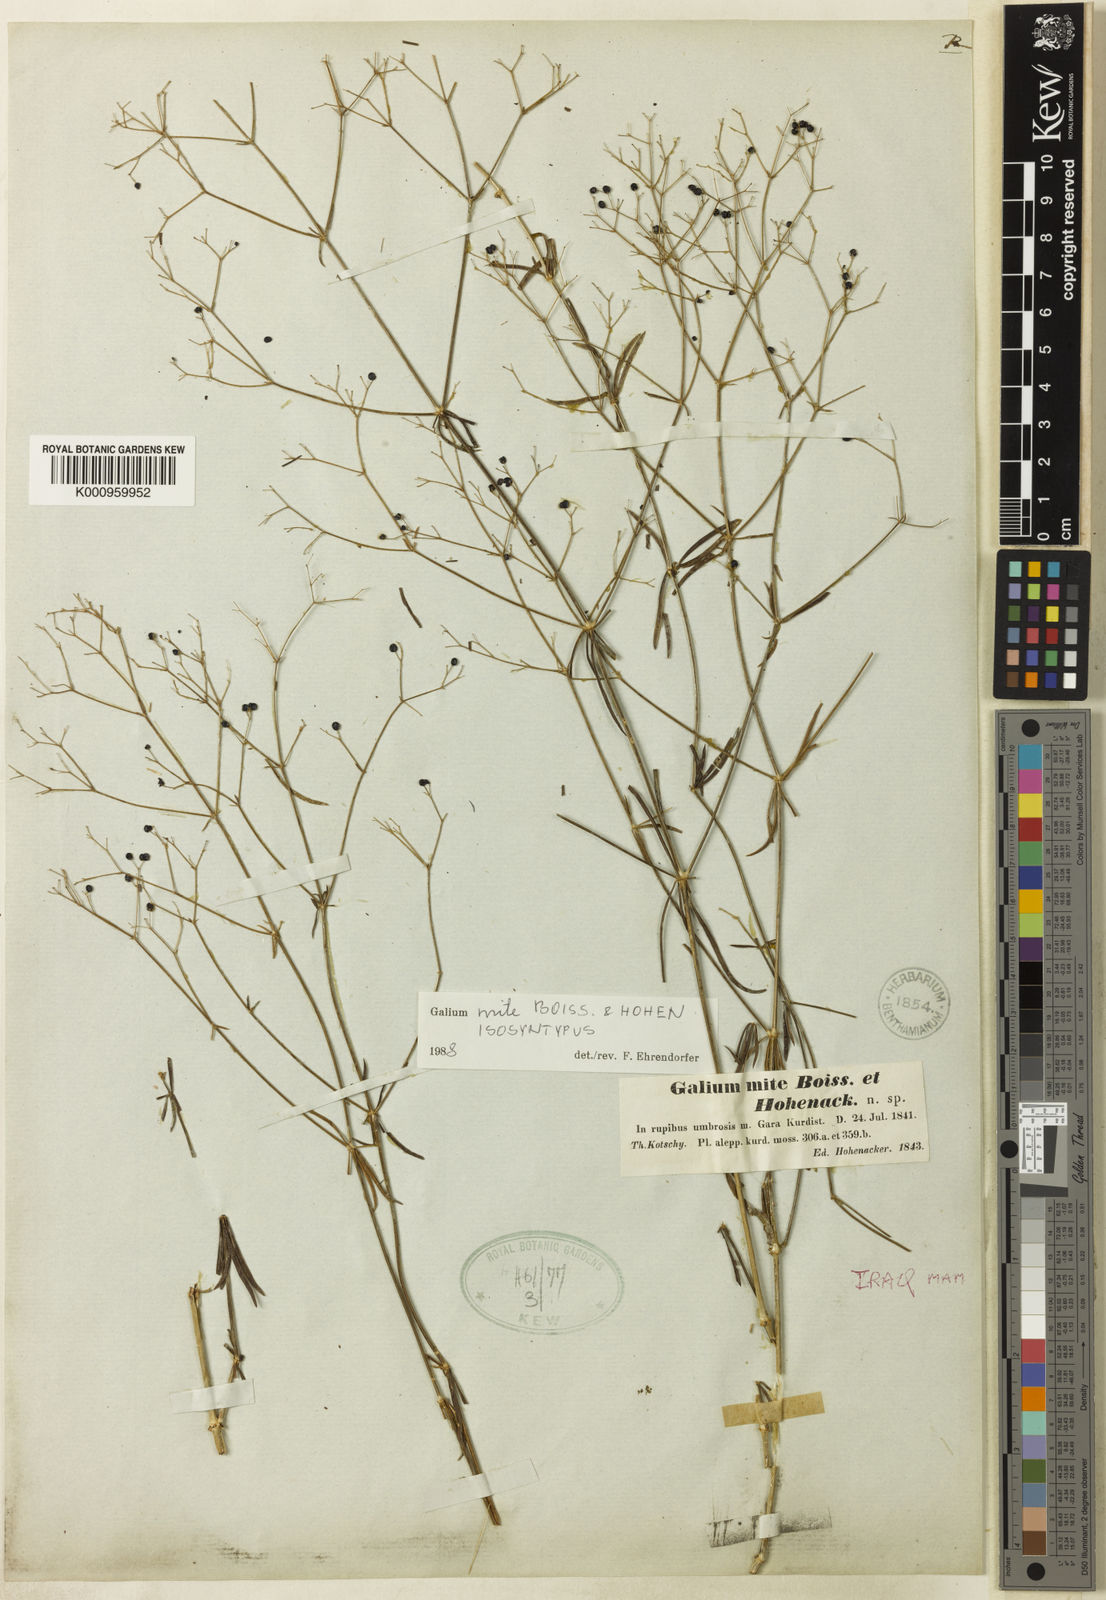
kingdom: Plantae
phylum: Tracheophyta
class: Magnoliopsida
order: Gentianales
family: Rubiaceae
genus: Galium
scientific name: Galium mite
